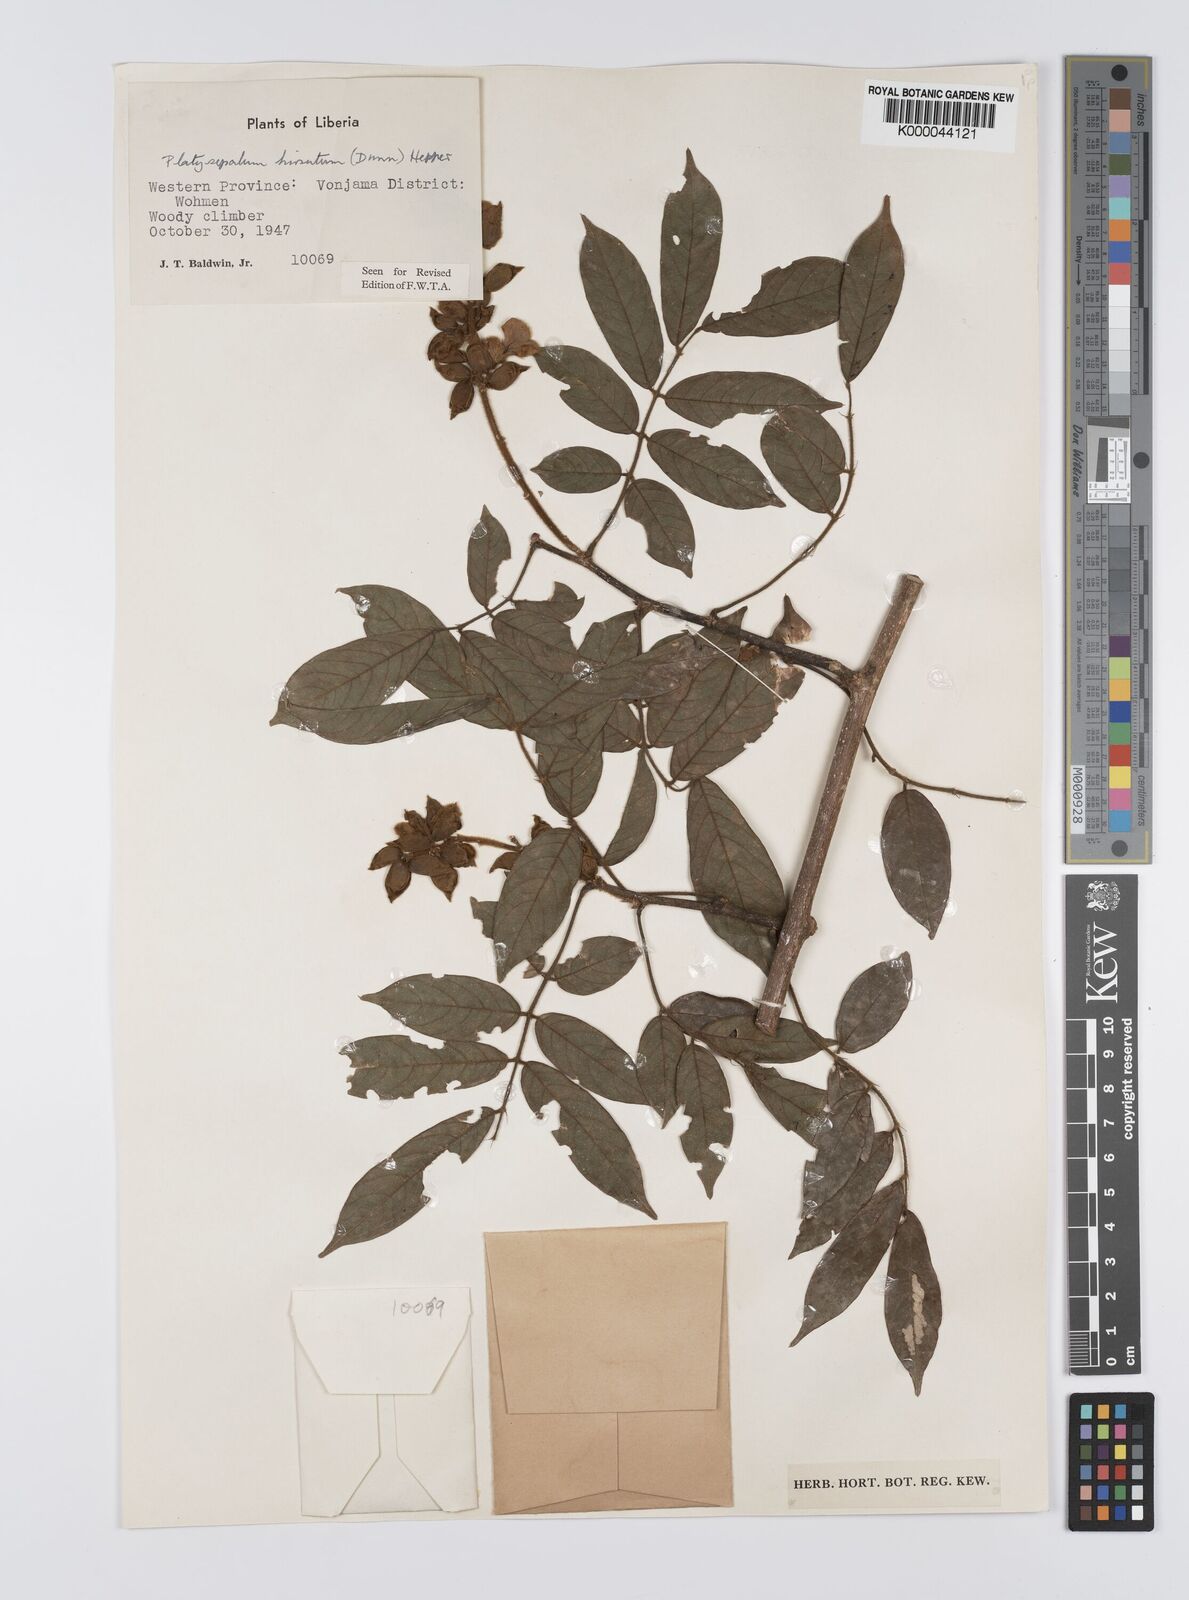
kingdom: Plantae
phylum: Tracheophyta
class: Magnoliopsida
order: Fabales
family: Fabaceae
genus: Platysepalum
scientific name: Platysepalum hirsutum
